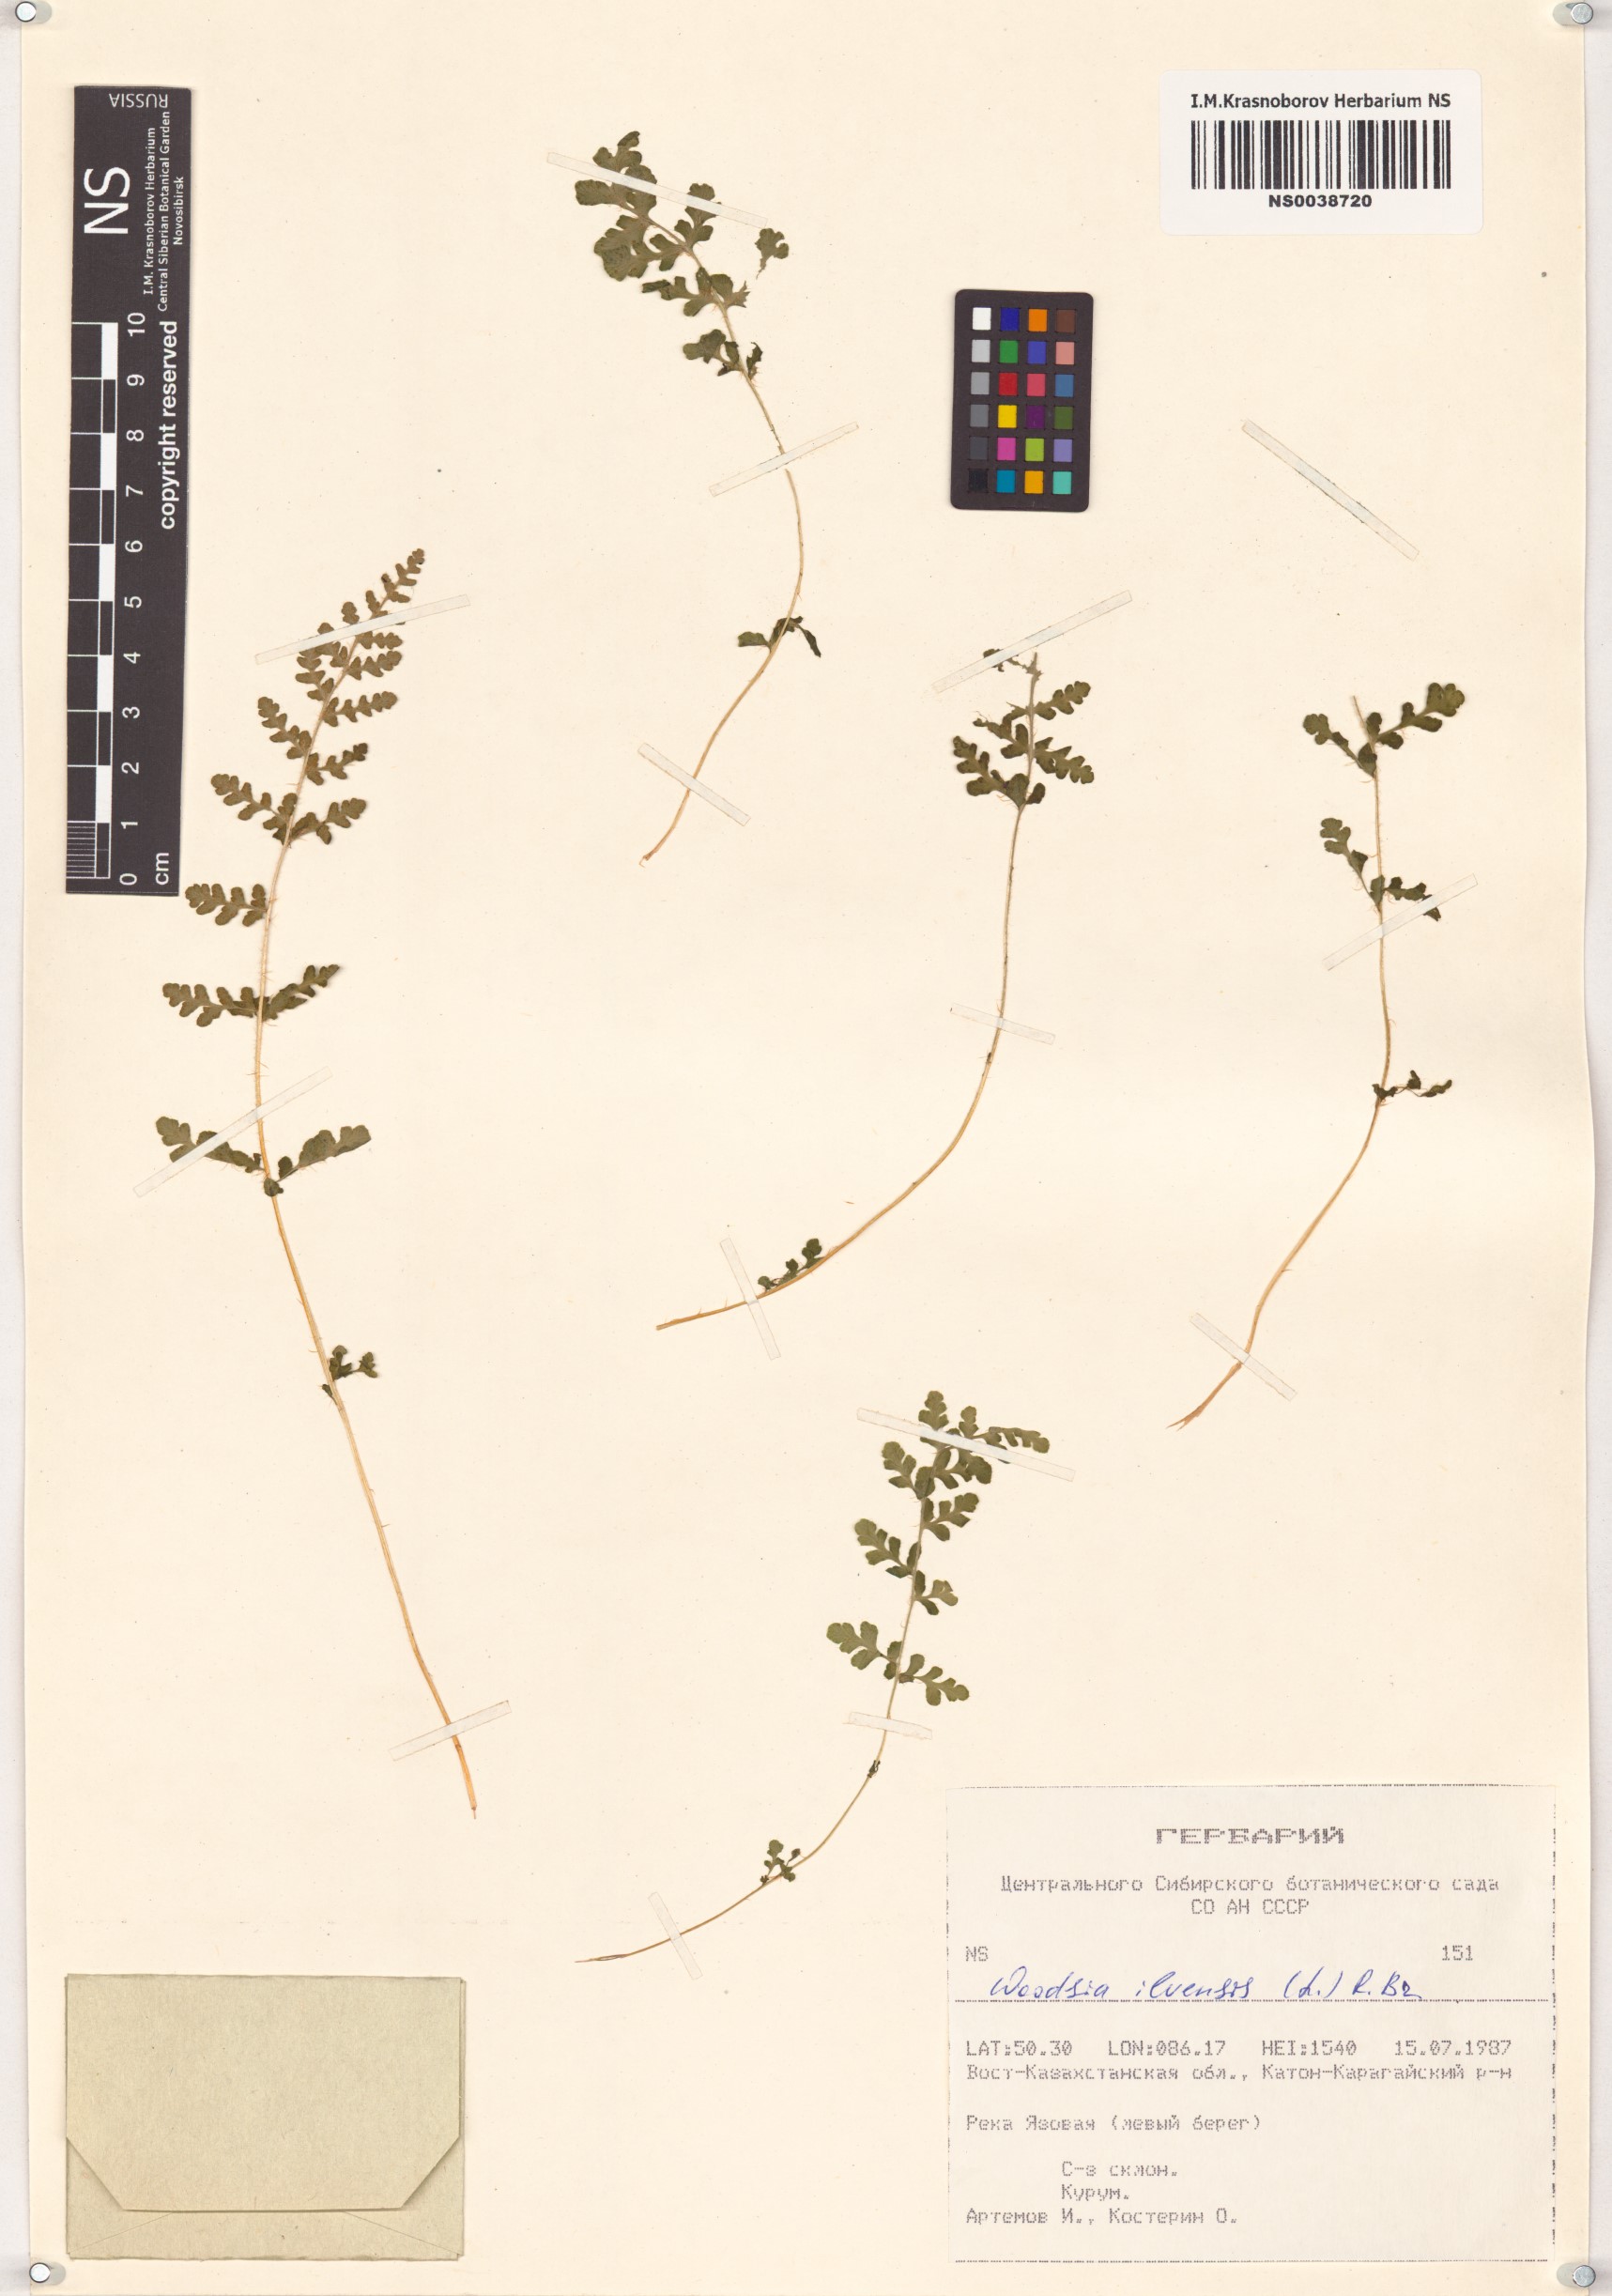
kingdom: Plantae
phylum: Tracheophyta
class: Polypodiopsida
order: Polypodiales
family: Woodsiaceae
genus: Woodsia
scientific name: Woodsia ilvensis
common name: Fragrant woodsia
